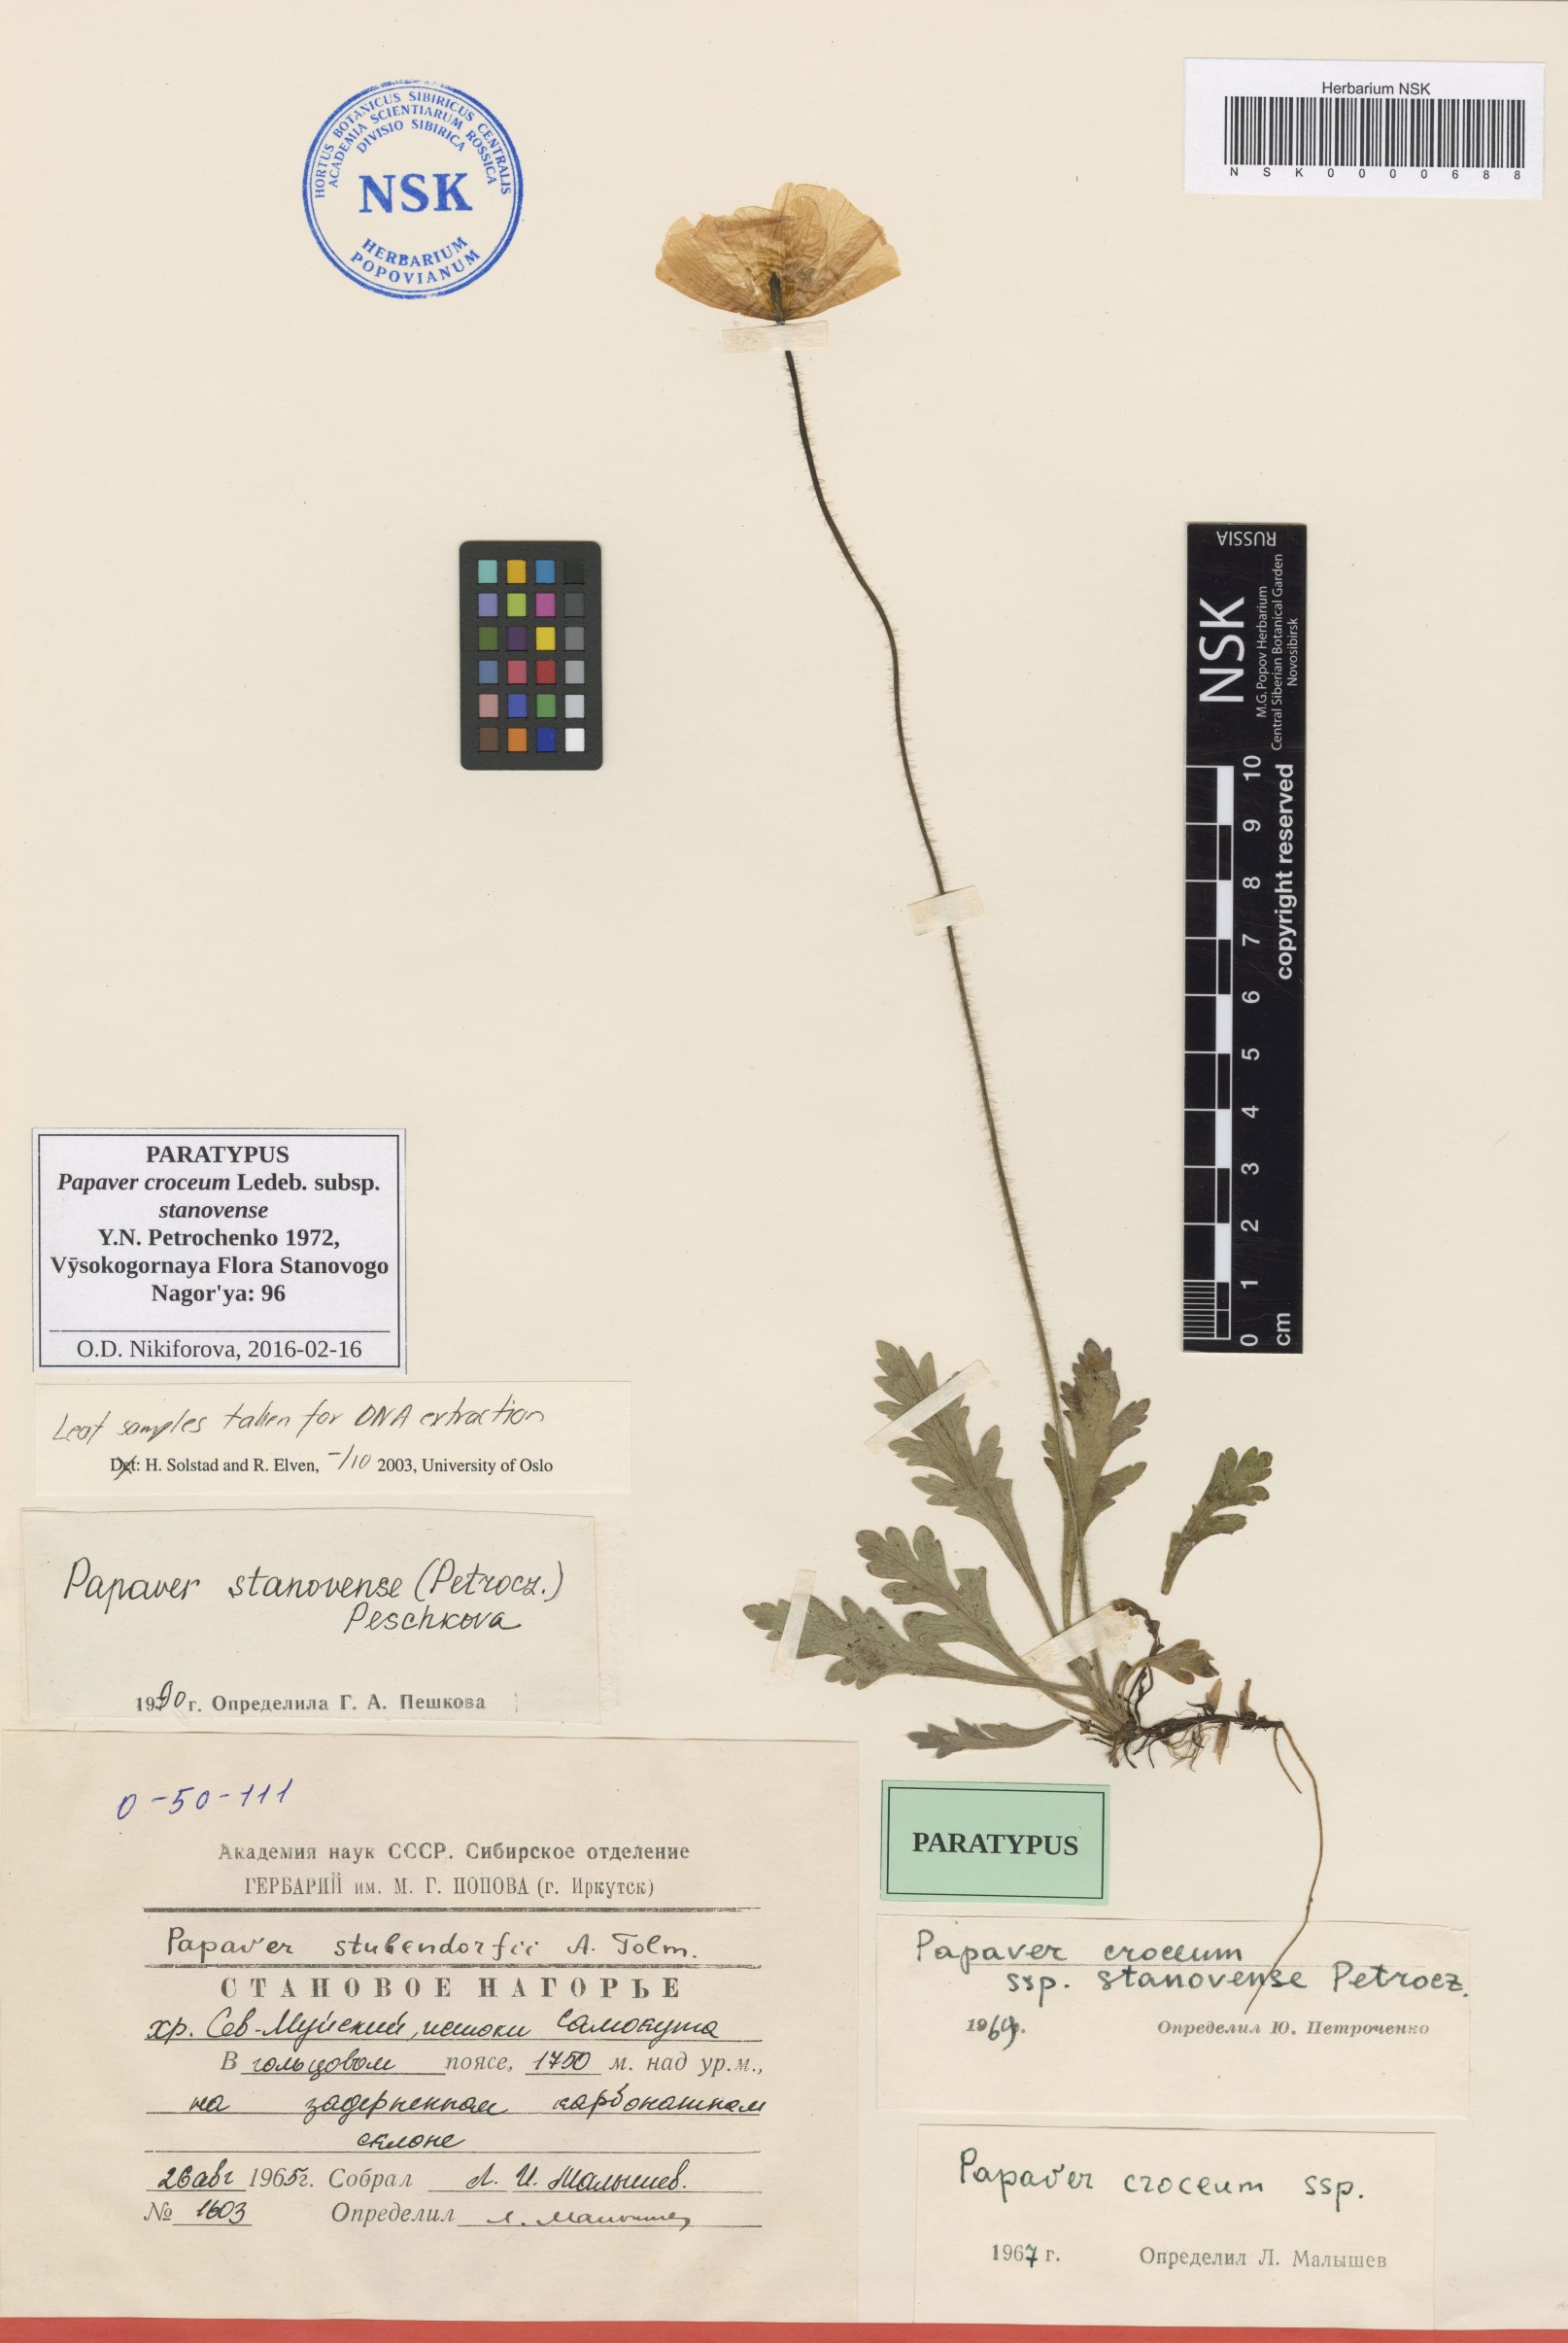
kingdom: Plantae
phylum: Tracheophyta
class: Magnoliopsida
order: Ranunculales
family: Papaveraceae
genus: Papaver
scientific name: Papaver stanovense
